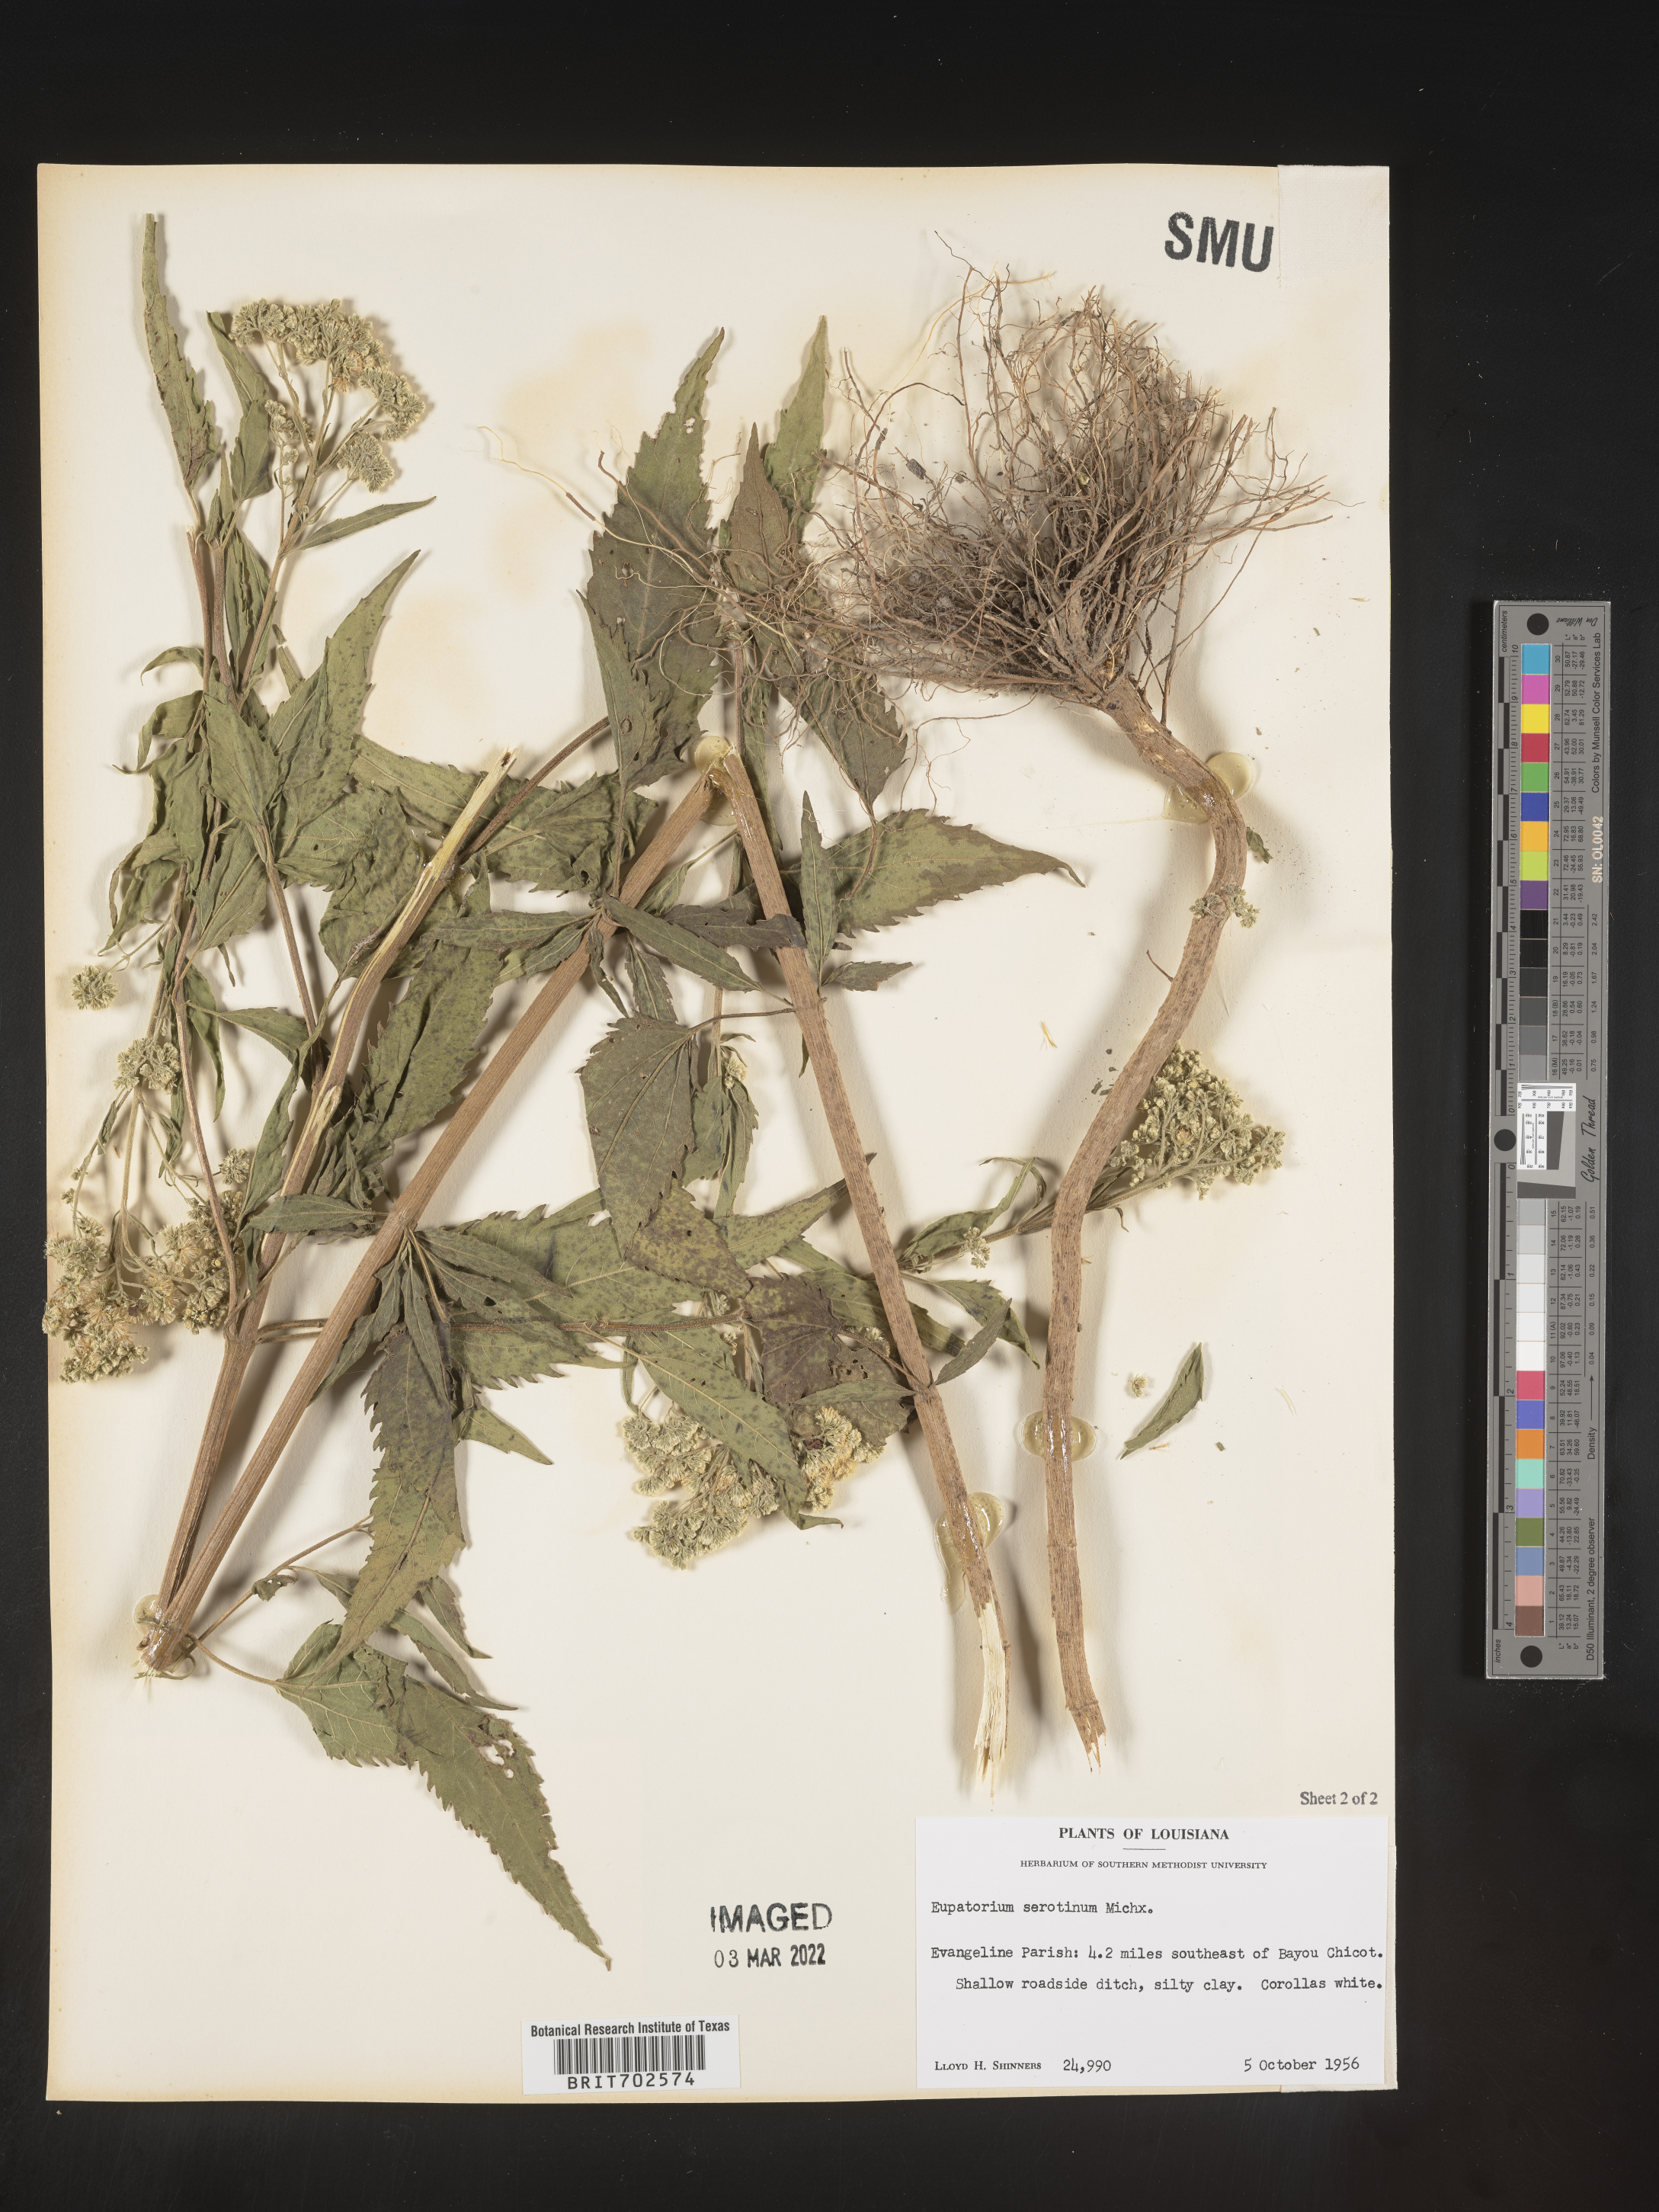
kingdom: Plantae
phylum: Tracheophyta
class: Magnoliopsida
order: Asterales
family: Asteraceae
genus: Eupatorium
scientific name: Eupatorium serotinum
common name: Late boneset
